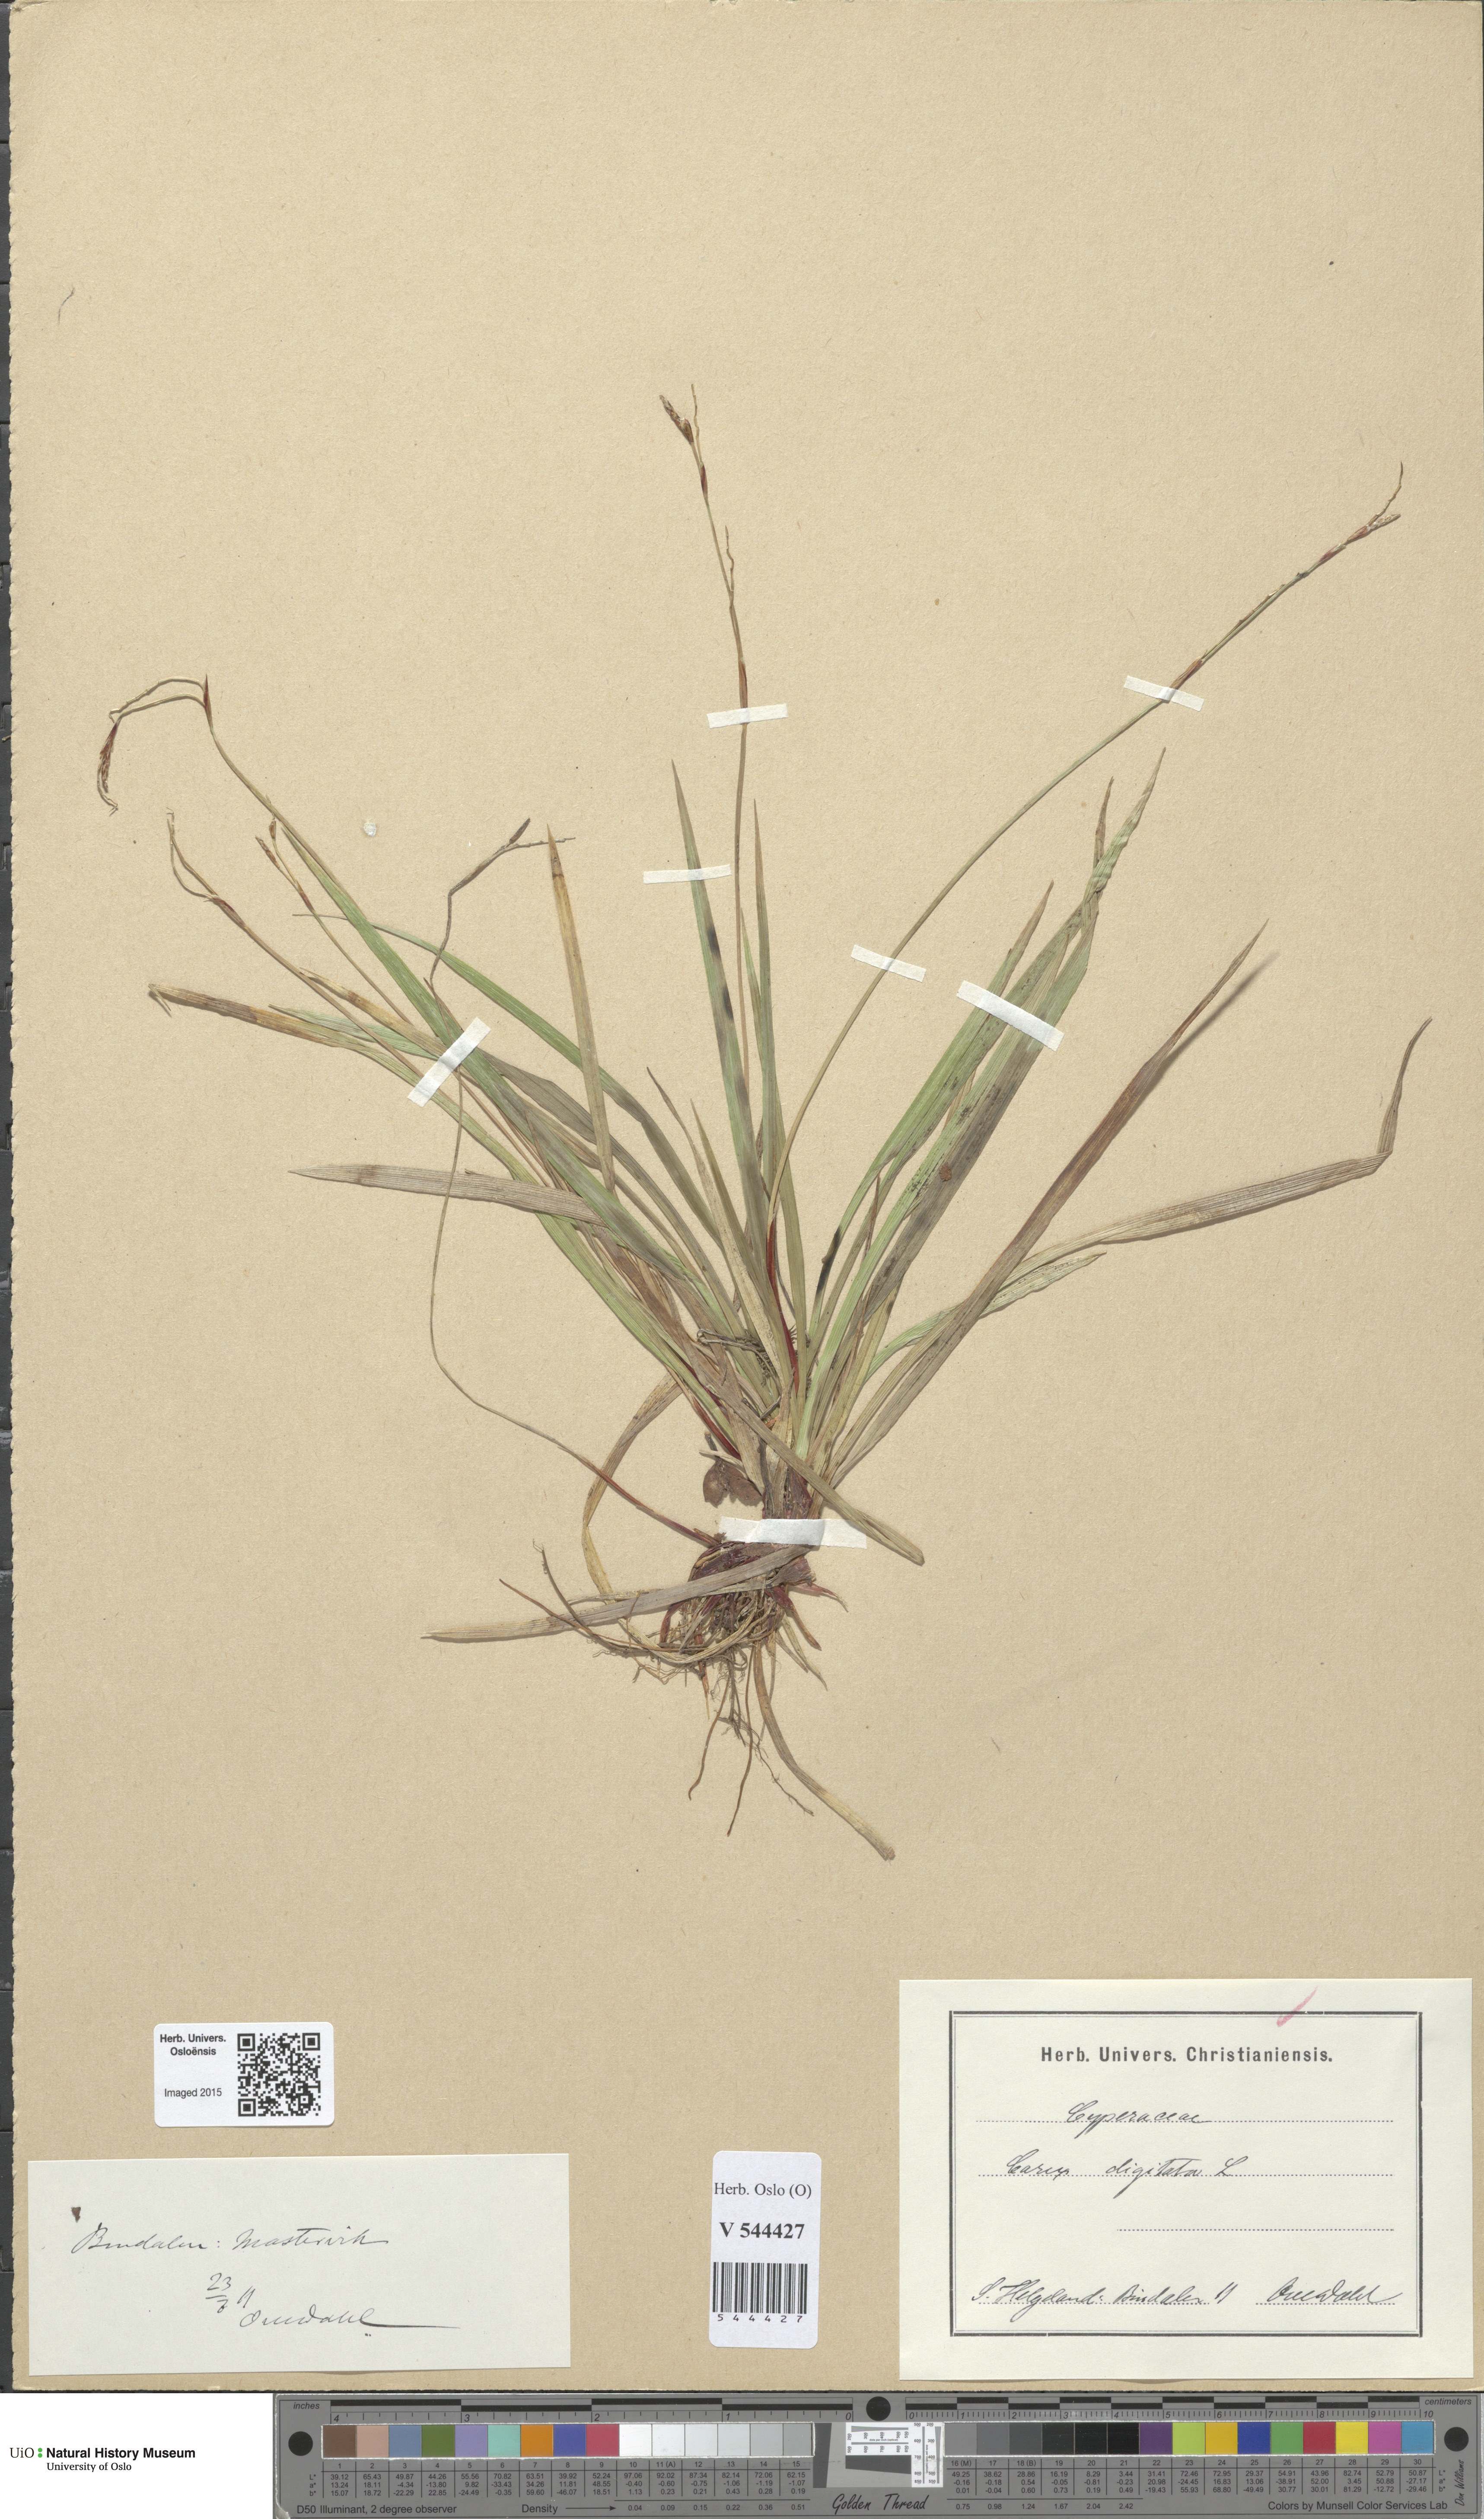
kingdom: Plantae
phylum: Tracheophyta
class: Liliopsida
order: Poales
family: Cyperaceae
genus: Carex
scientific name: Carex digitata
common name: Fingered sedge
